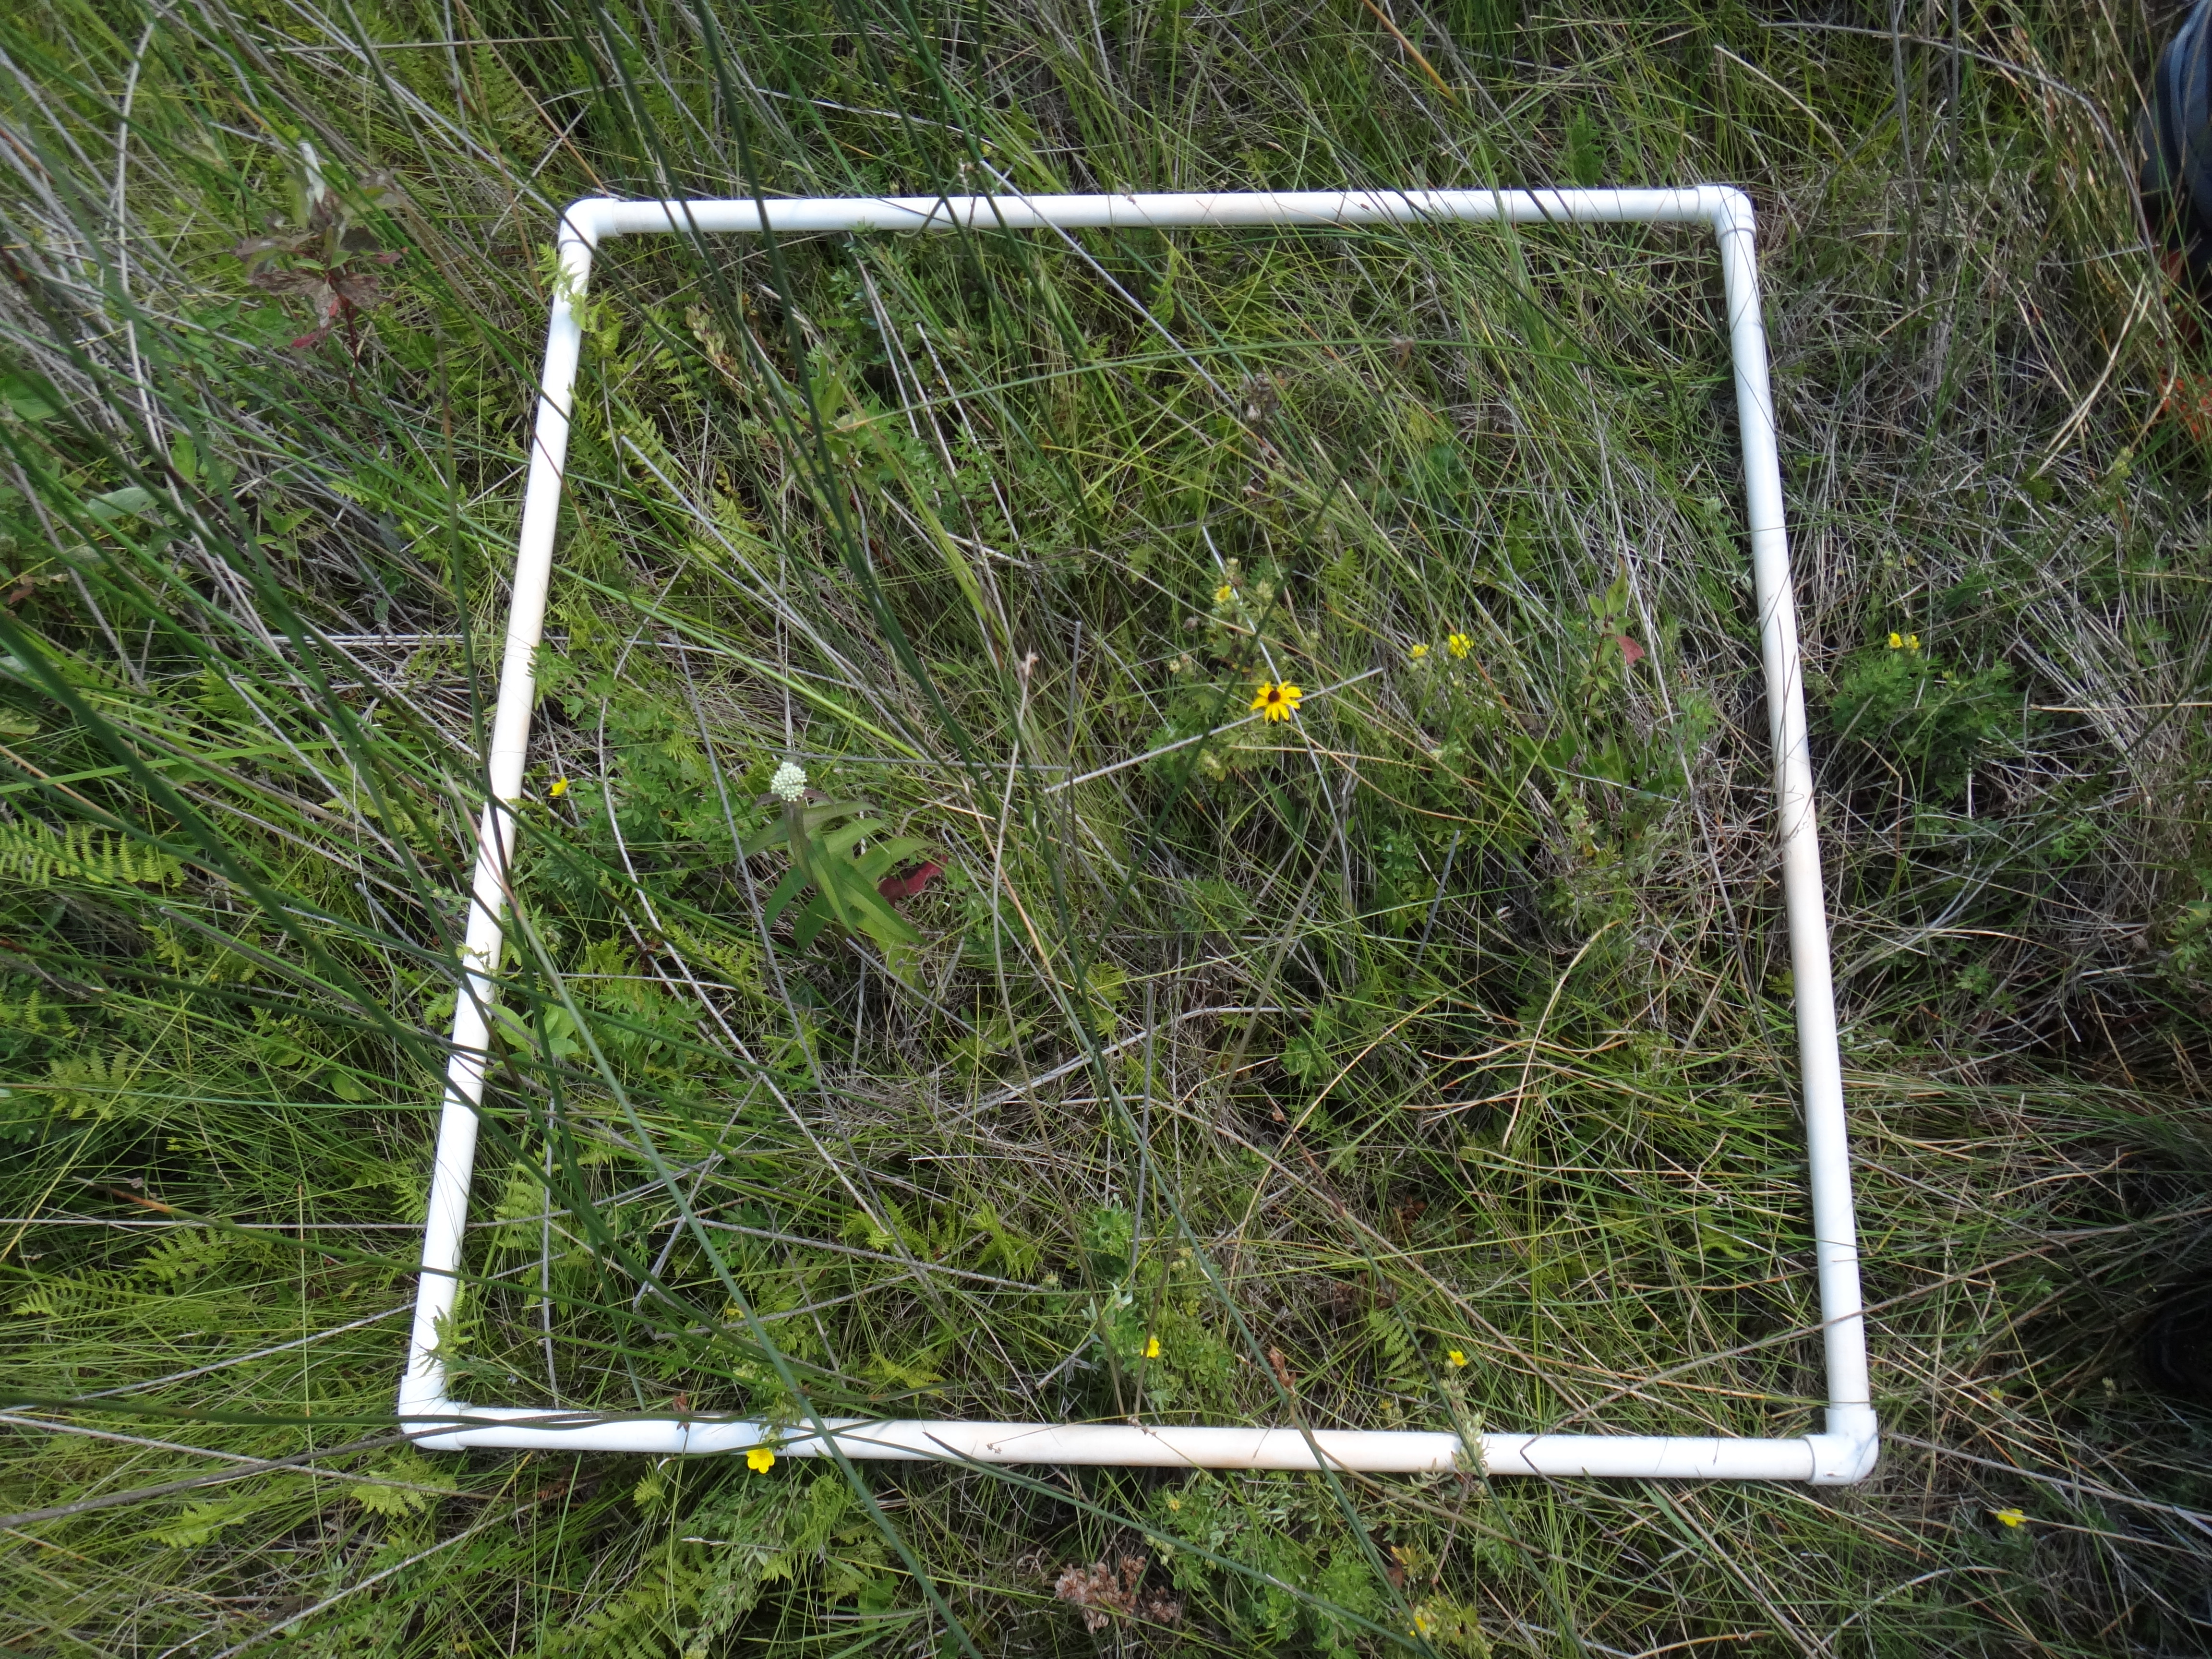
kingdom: Plantae
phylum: Tracheophyta
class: Magnoliopsida
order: Rosales
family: Rosaceae
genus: Dasiphora
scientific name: Dasiphora fruticosa
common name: Shrubby cinquefoil
